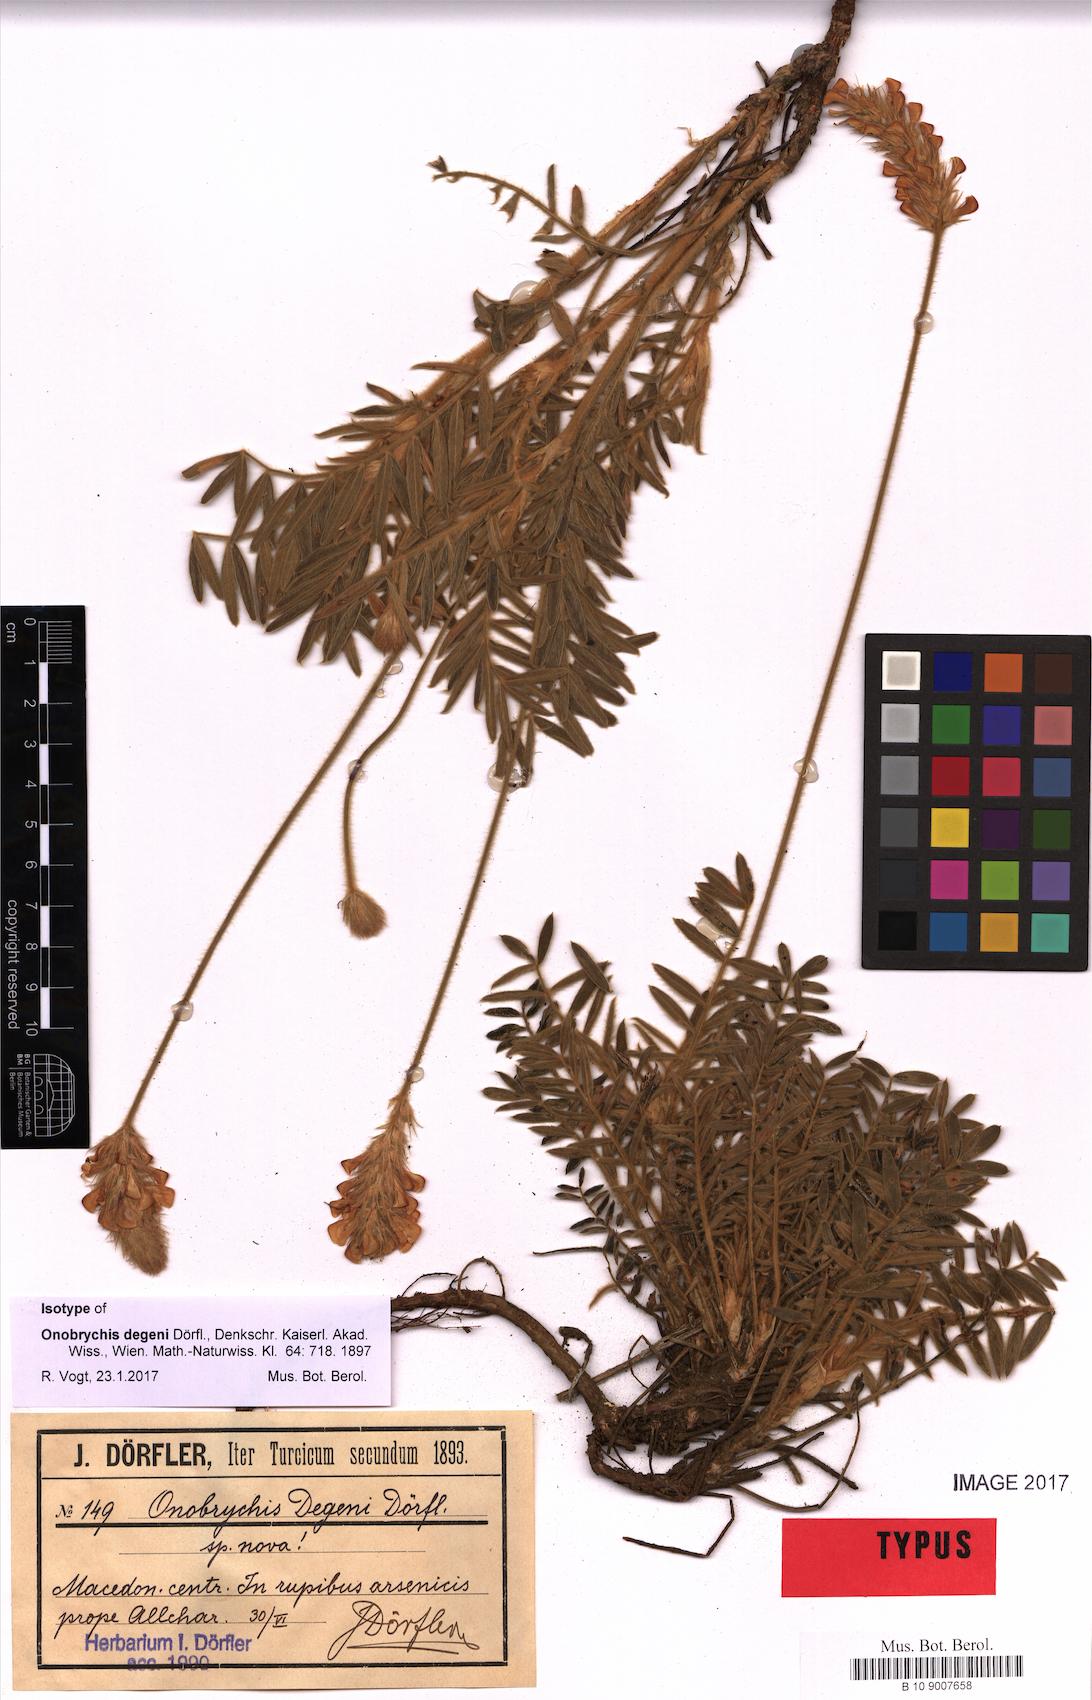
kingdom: Plantae
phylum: Tracheophyta
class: Magnoliopsida
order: Fabales
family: Fabaceae
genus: Onobrychis
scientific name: Onobrychis degenii
